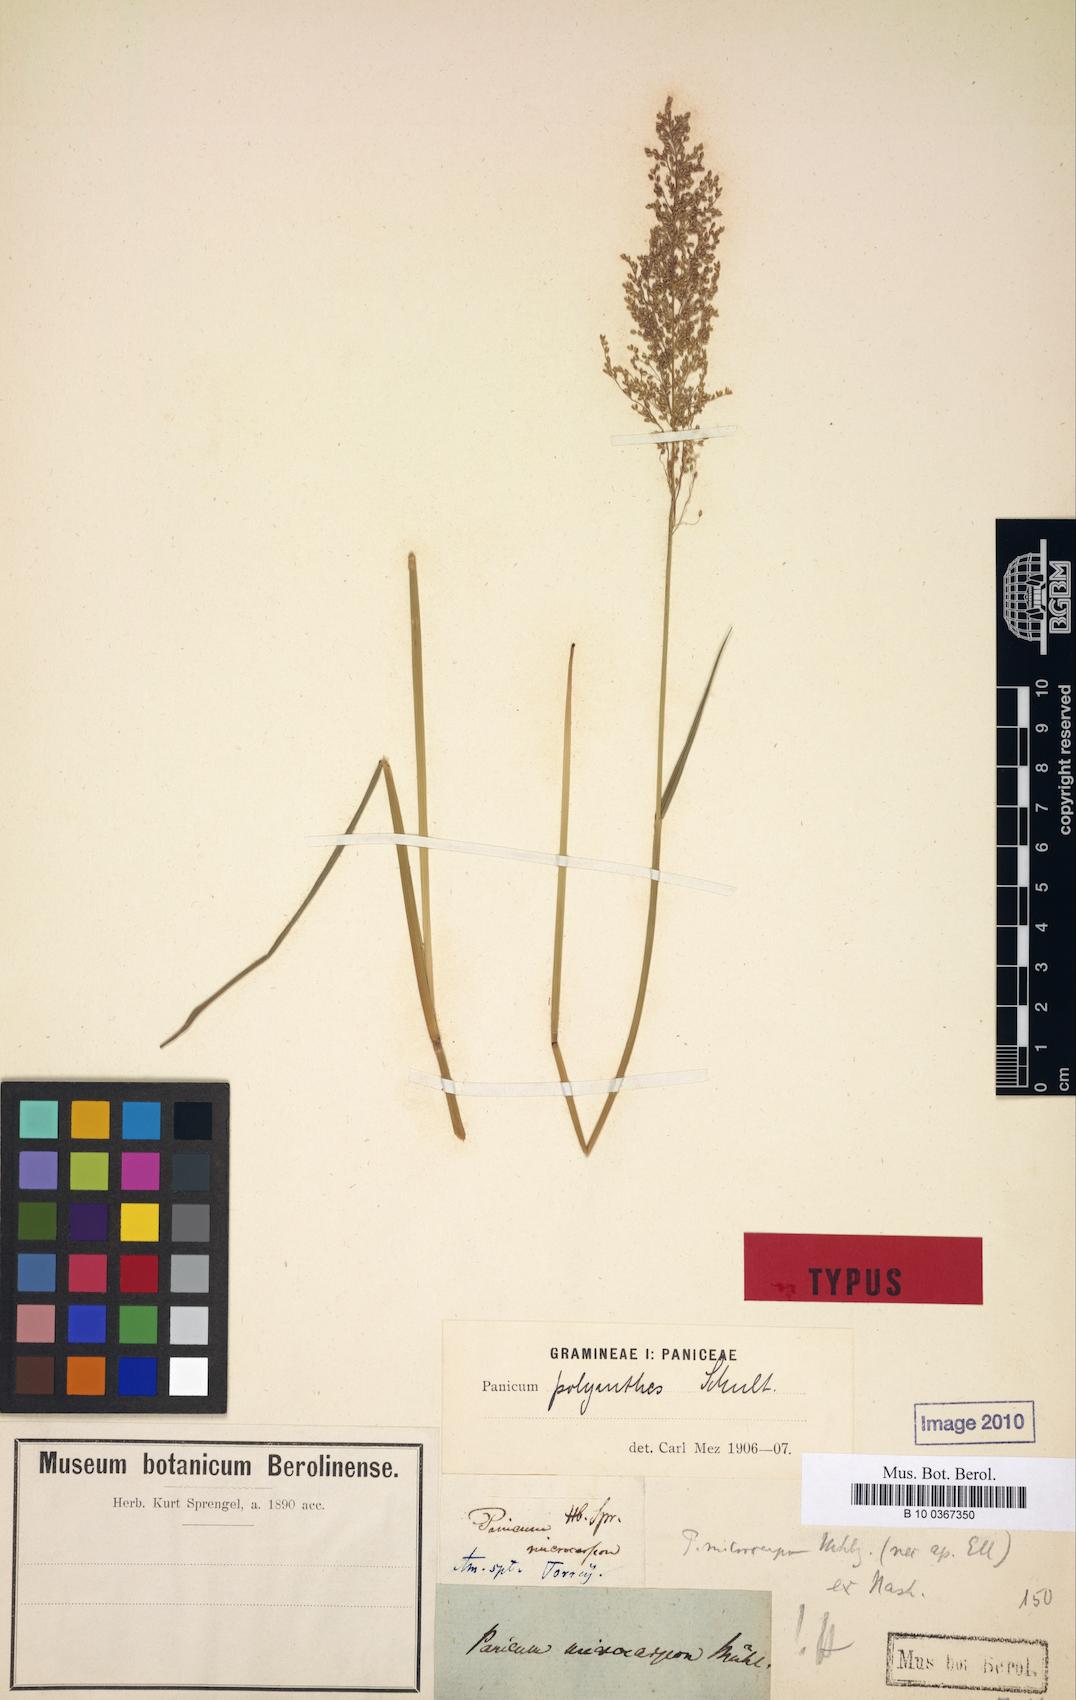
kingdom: Plantae
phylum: Tracheophyta
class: Liliopsida
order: Poales
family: Poaceae
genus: Dichanthelium
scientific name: Dichanthelium polyanthes
